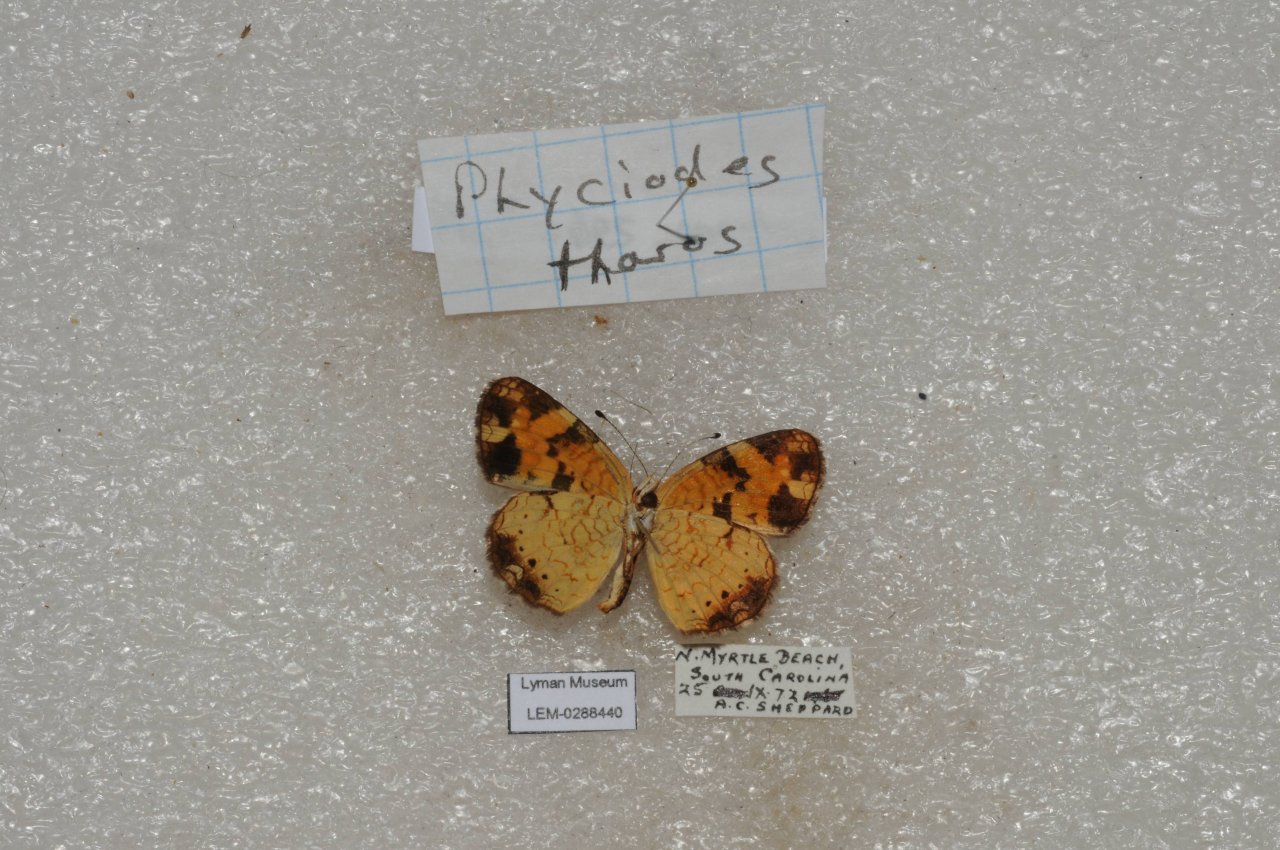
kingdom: Animalia
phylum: Arthropoda
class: Insecta
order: Lepidoptera
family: Nymphalidae
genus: Phyciodes
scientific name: Phyciodes tharos
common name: Pearl Crescent
